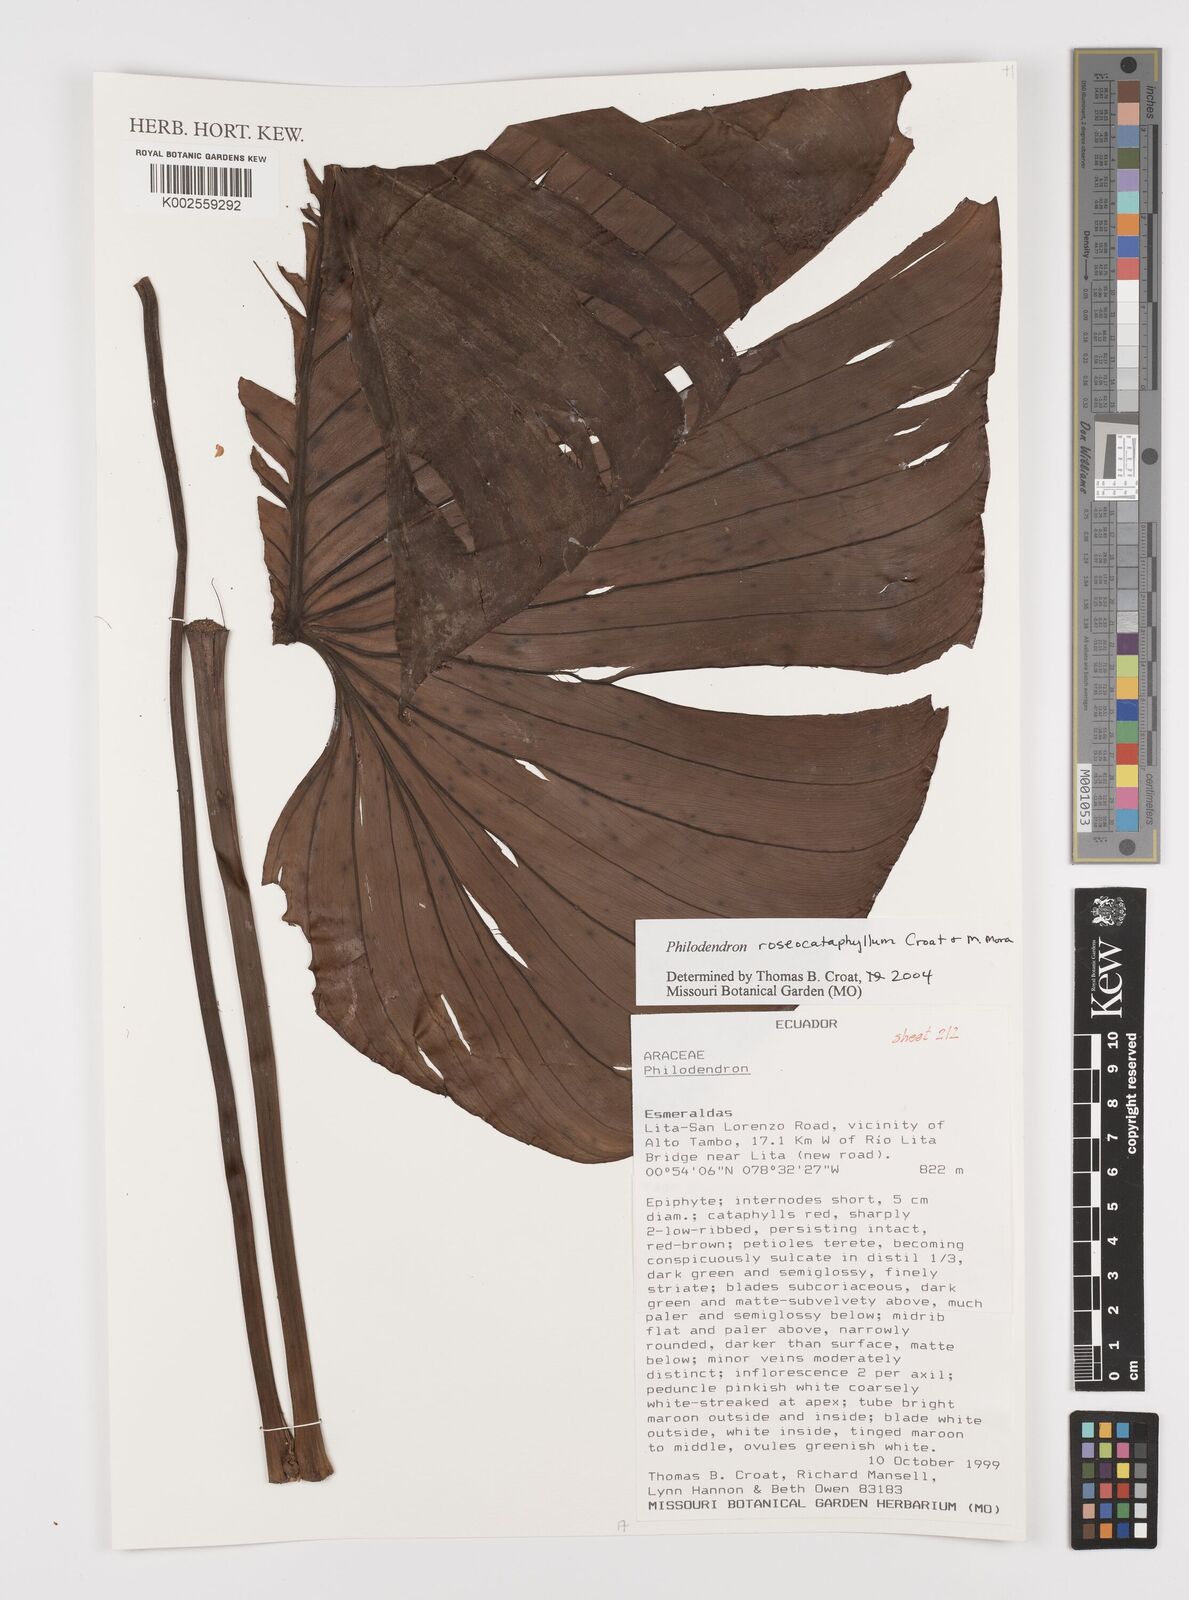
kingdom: Plantae
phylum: Tracheophyta
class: Liliopsida
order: Alismatales
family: Araceae
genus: Philodendron
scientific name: Philodendron roseocataphyllum
